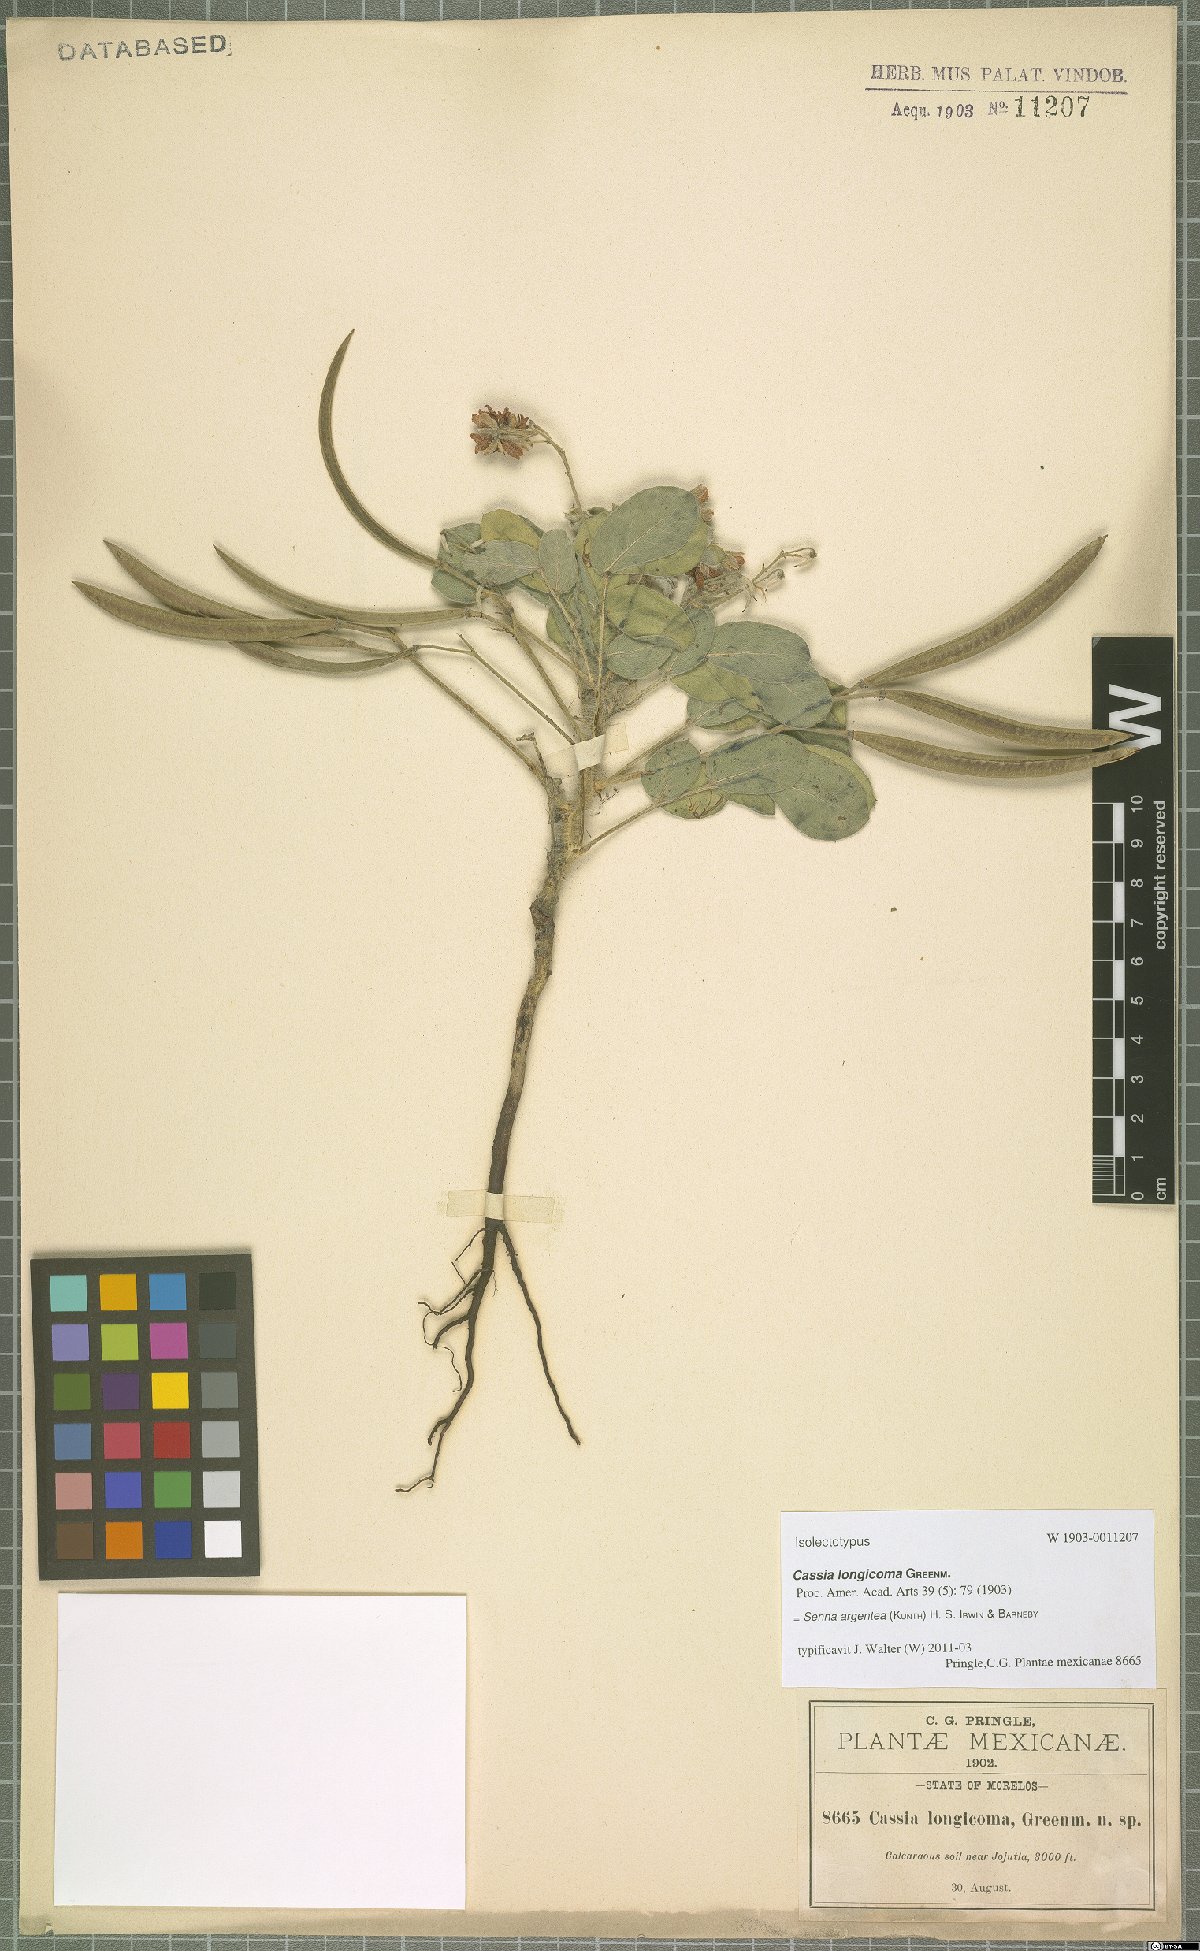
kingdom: Plantae
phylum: Tracheophyta
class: Magnoliopsida
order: Fabales
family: Fabaceae
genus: Senna
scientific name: Senna argentea
